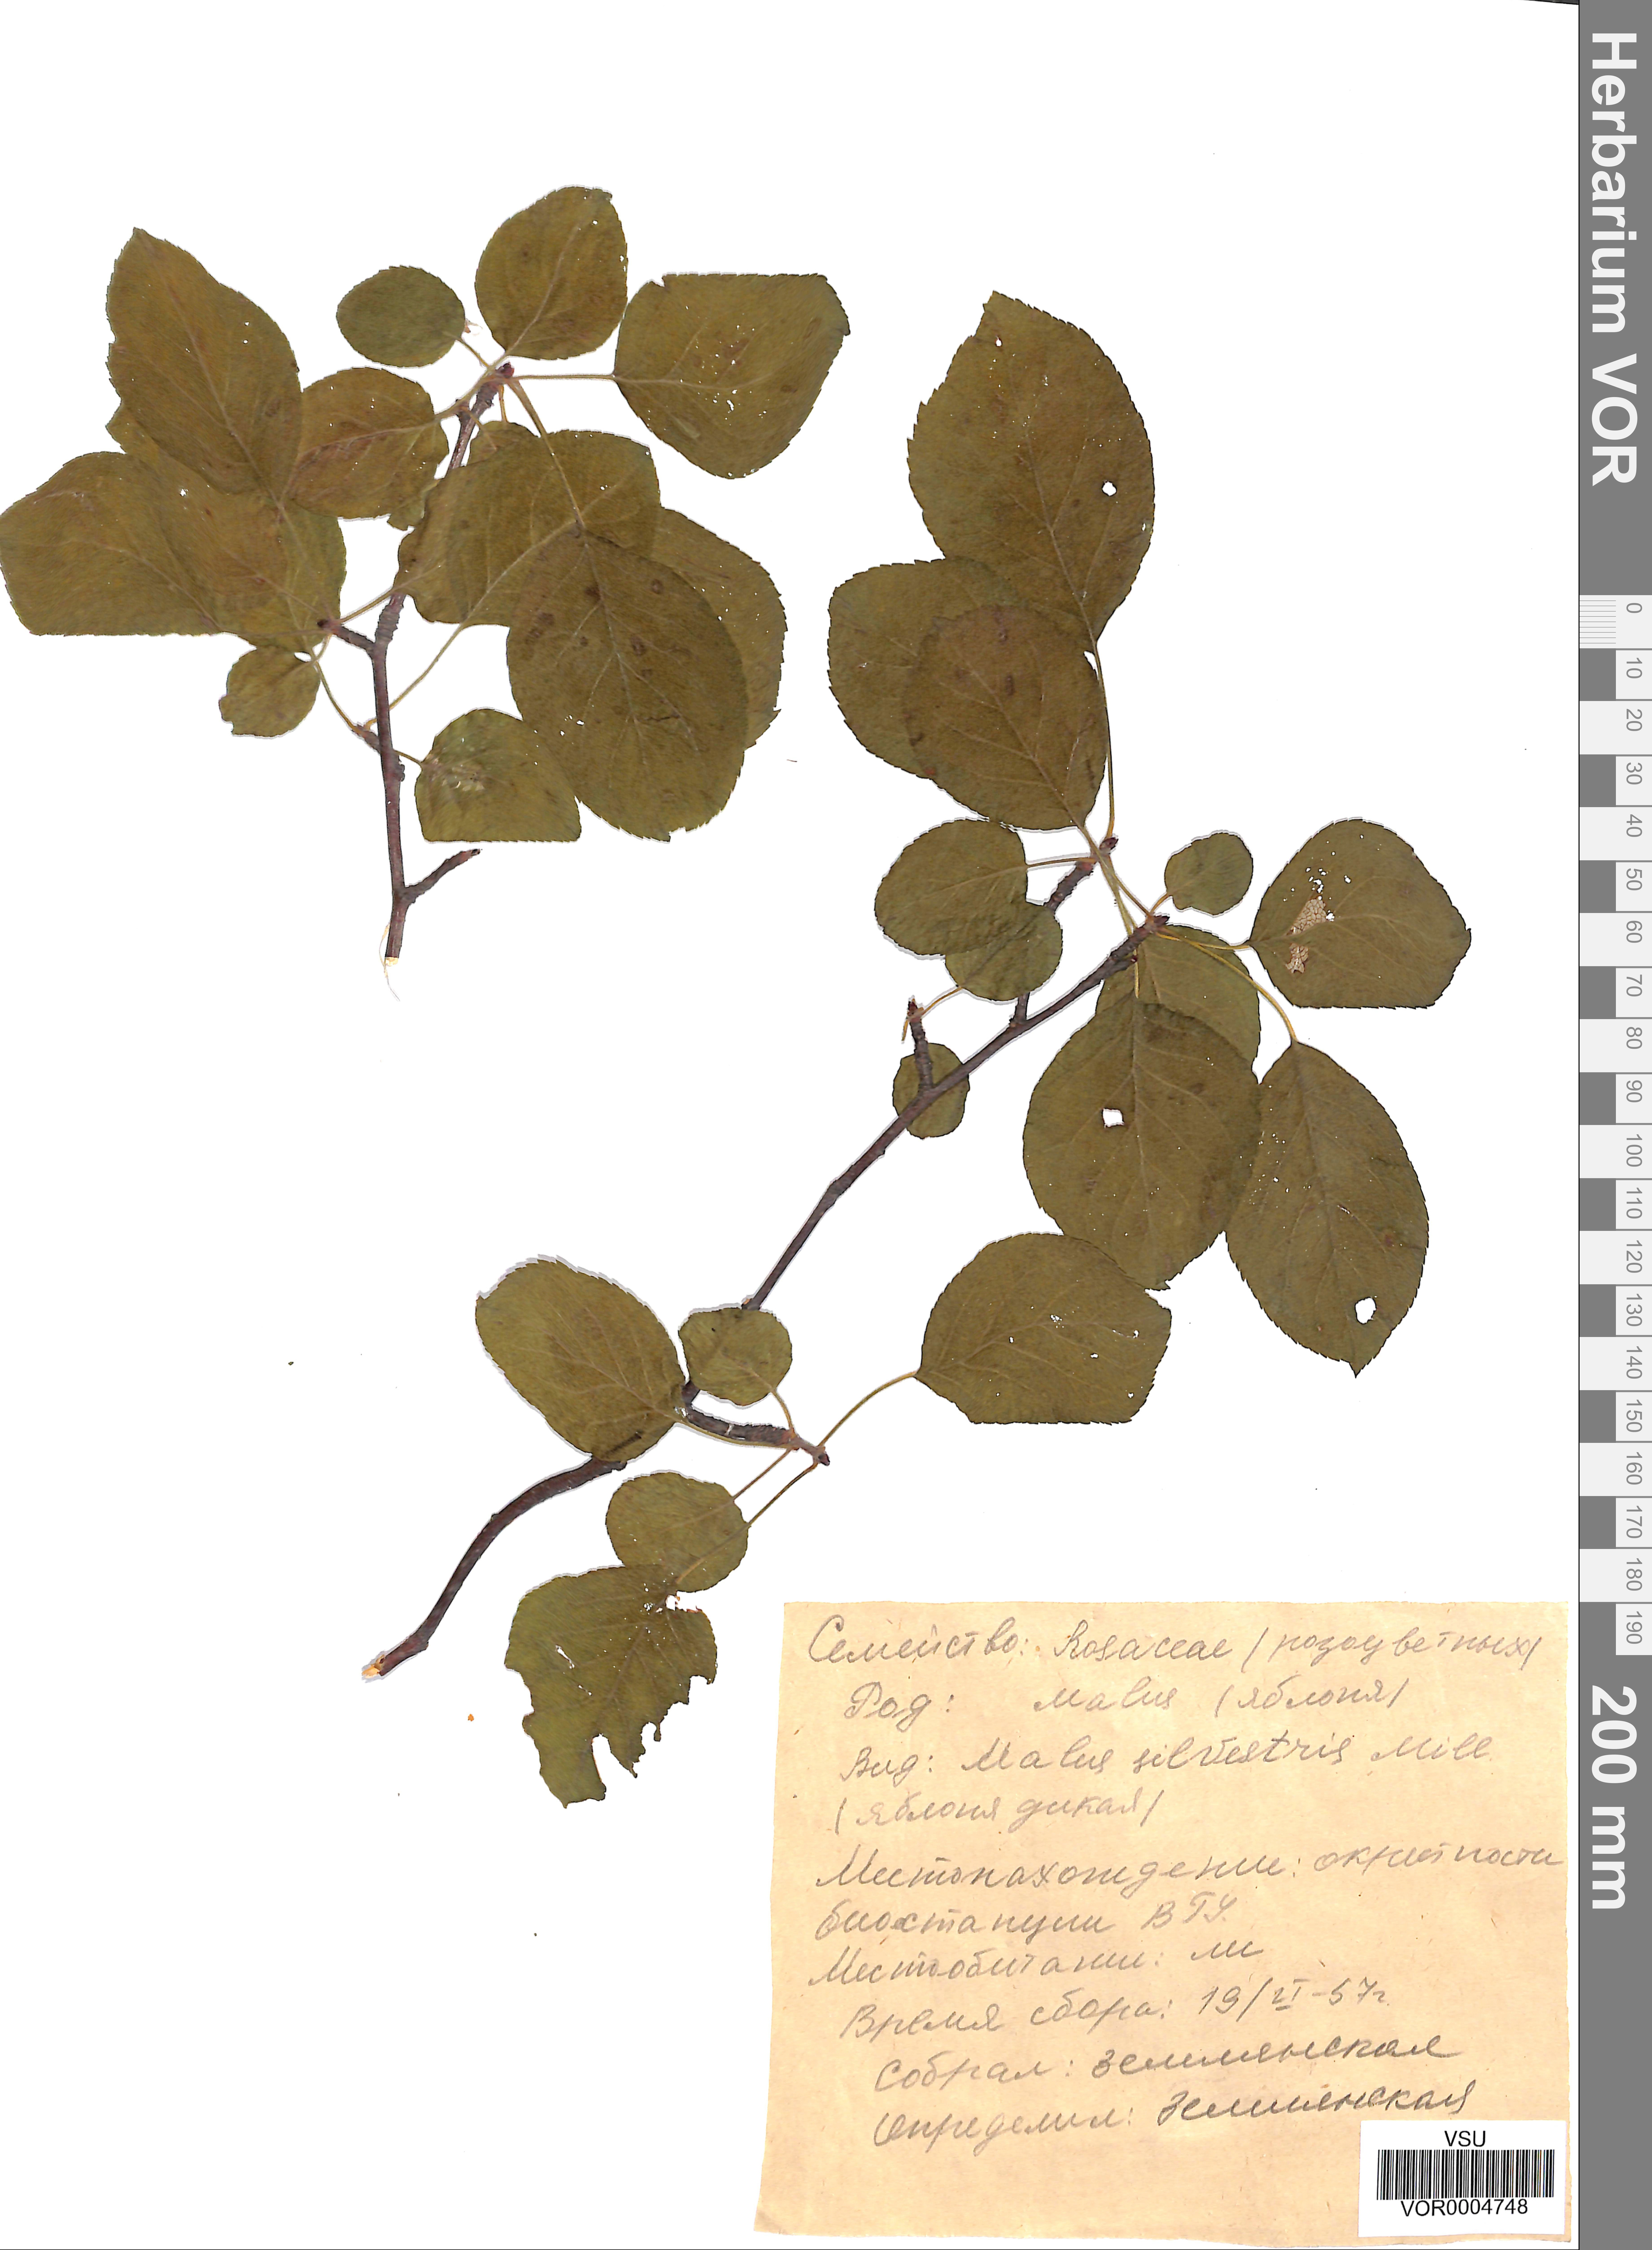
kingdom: Plantae
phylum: Tracheophyta
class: Magnoliopsida
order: Rosales
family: Rosaceae
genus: Malus
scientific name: Malus domestica
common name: Apple
